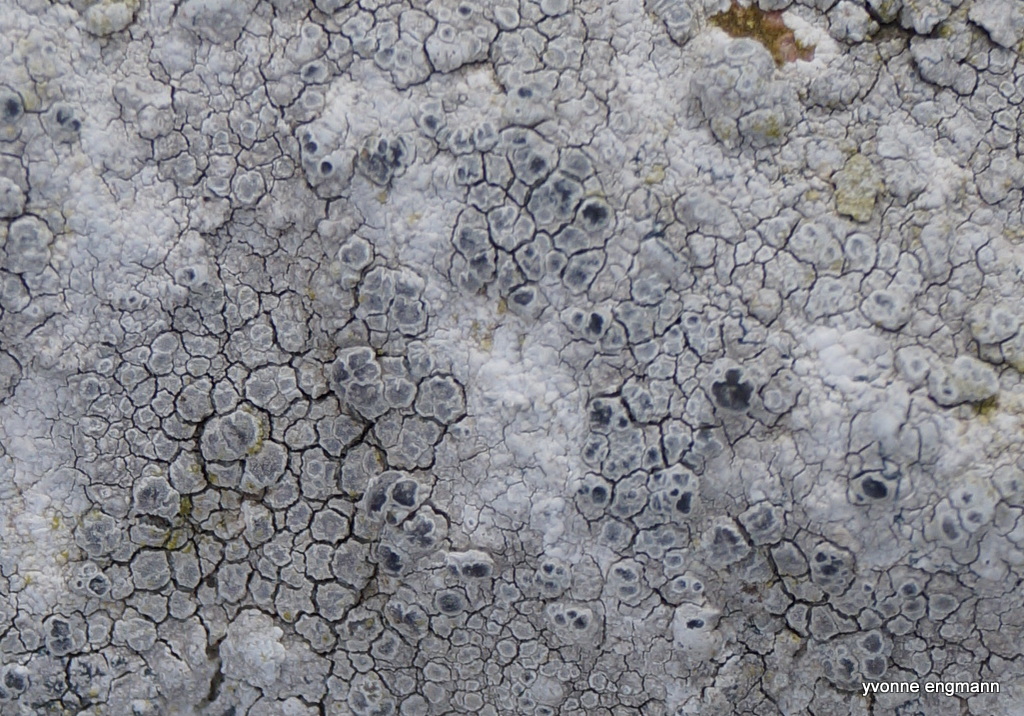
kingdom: Fungi
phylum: Ascomycota
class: Arthoniomycetes
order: Arthoniales
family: Arthoniaceae
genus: Arthonia
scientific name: Arthonia varians
